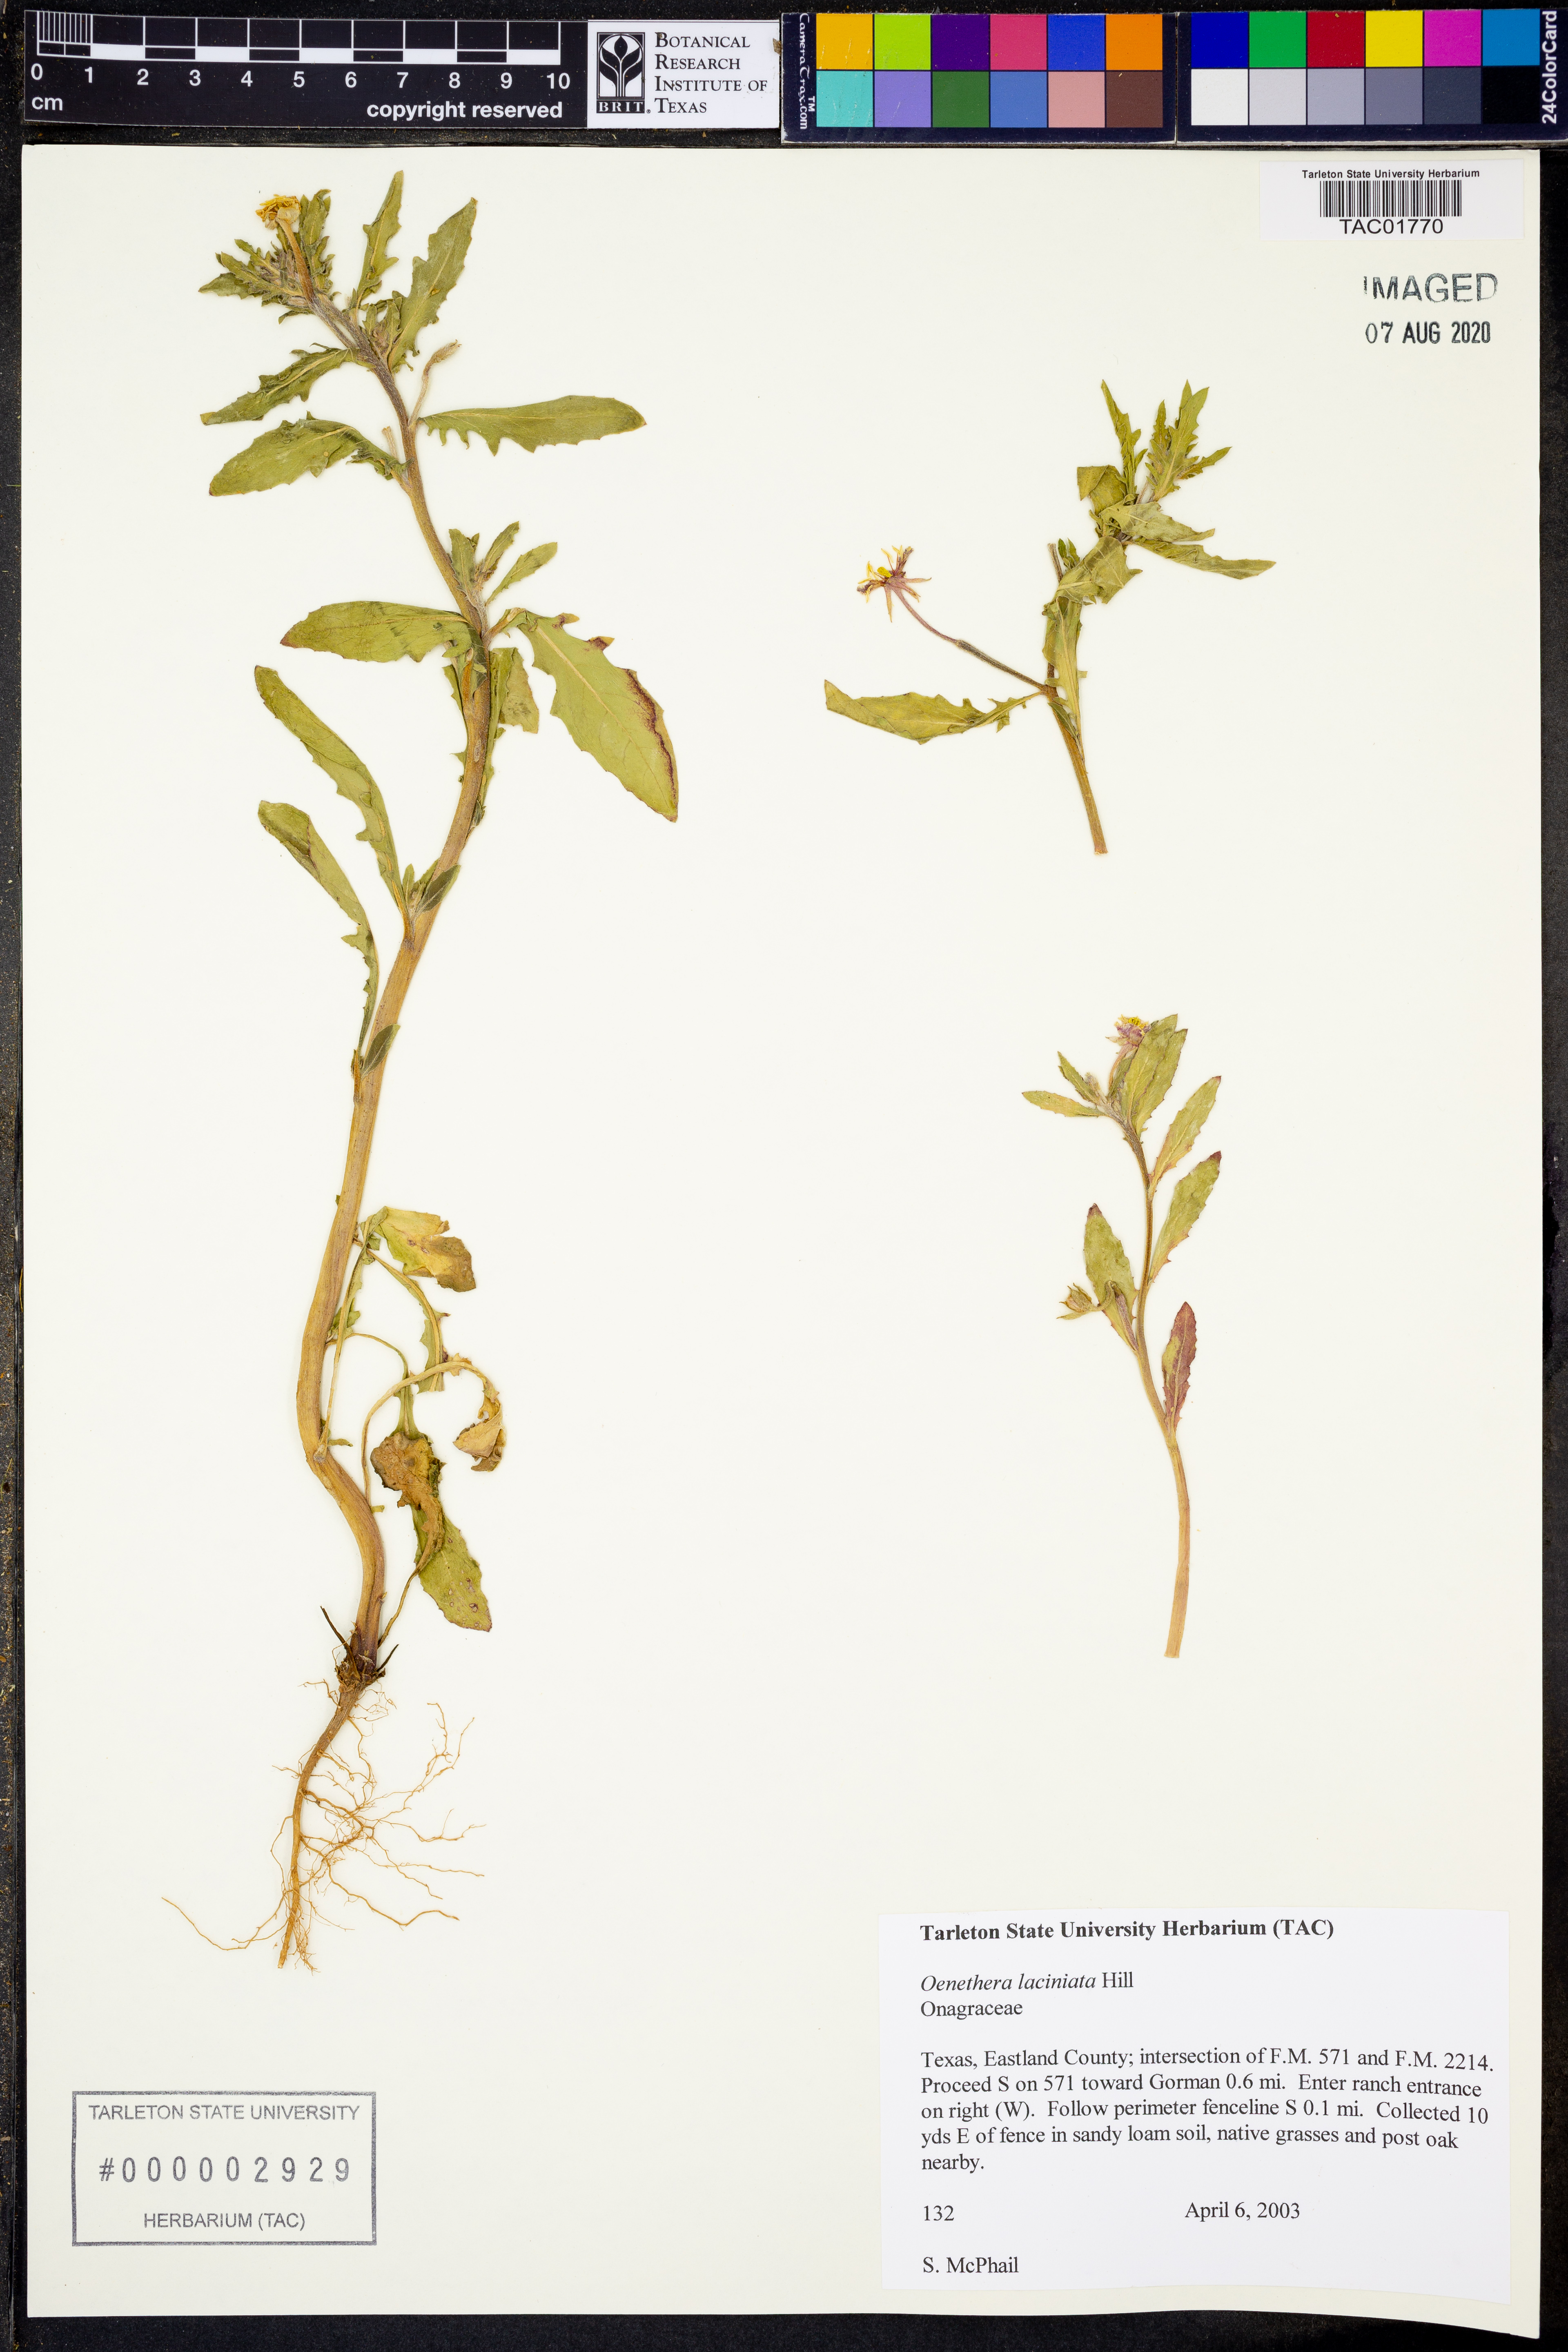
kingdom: Plantae
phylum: Tracheophyta
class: Magnoliopsida
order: Myrtales
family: Onagraceae
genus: Oenothera
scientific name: Oenothera laciniata
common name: Cut-leaved evening-primrose
